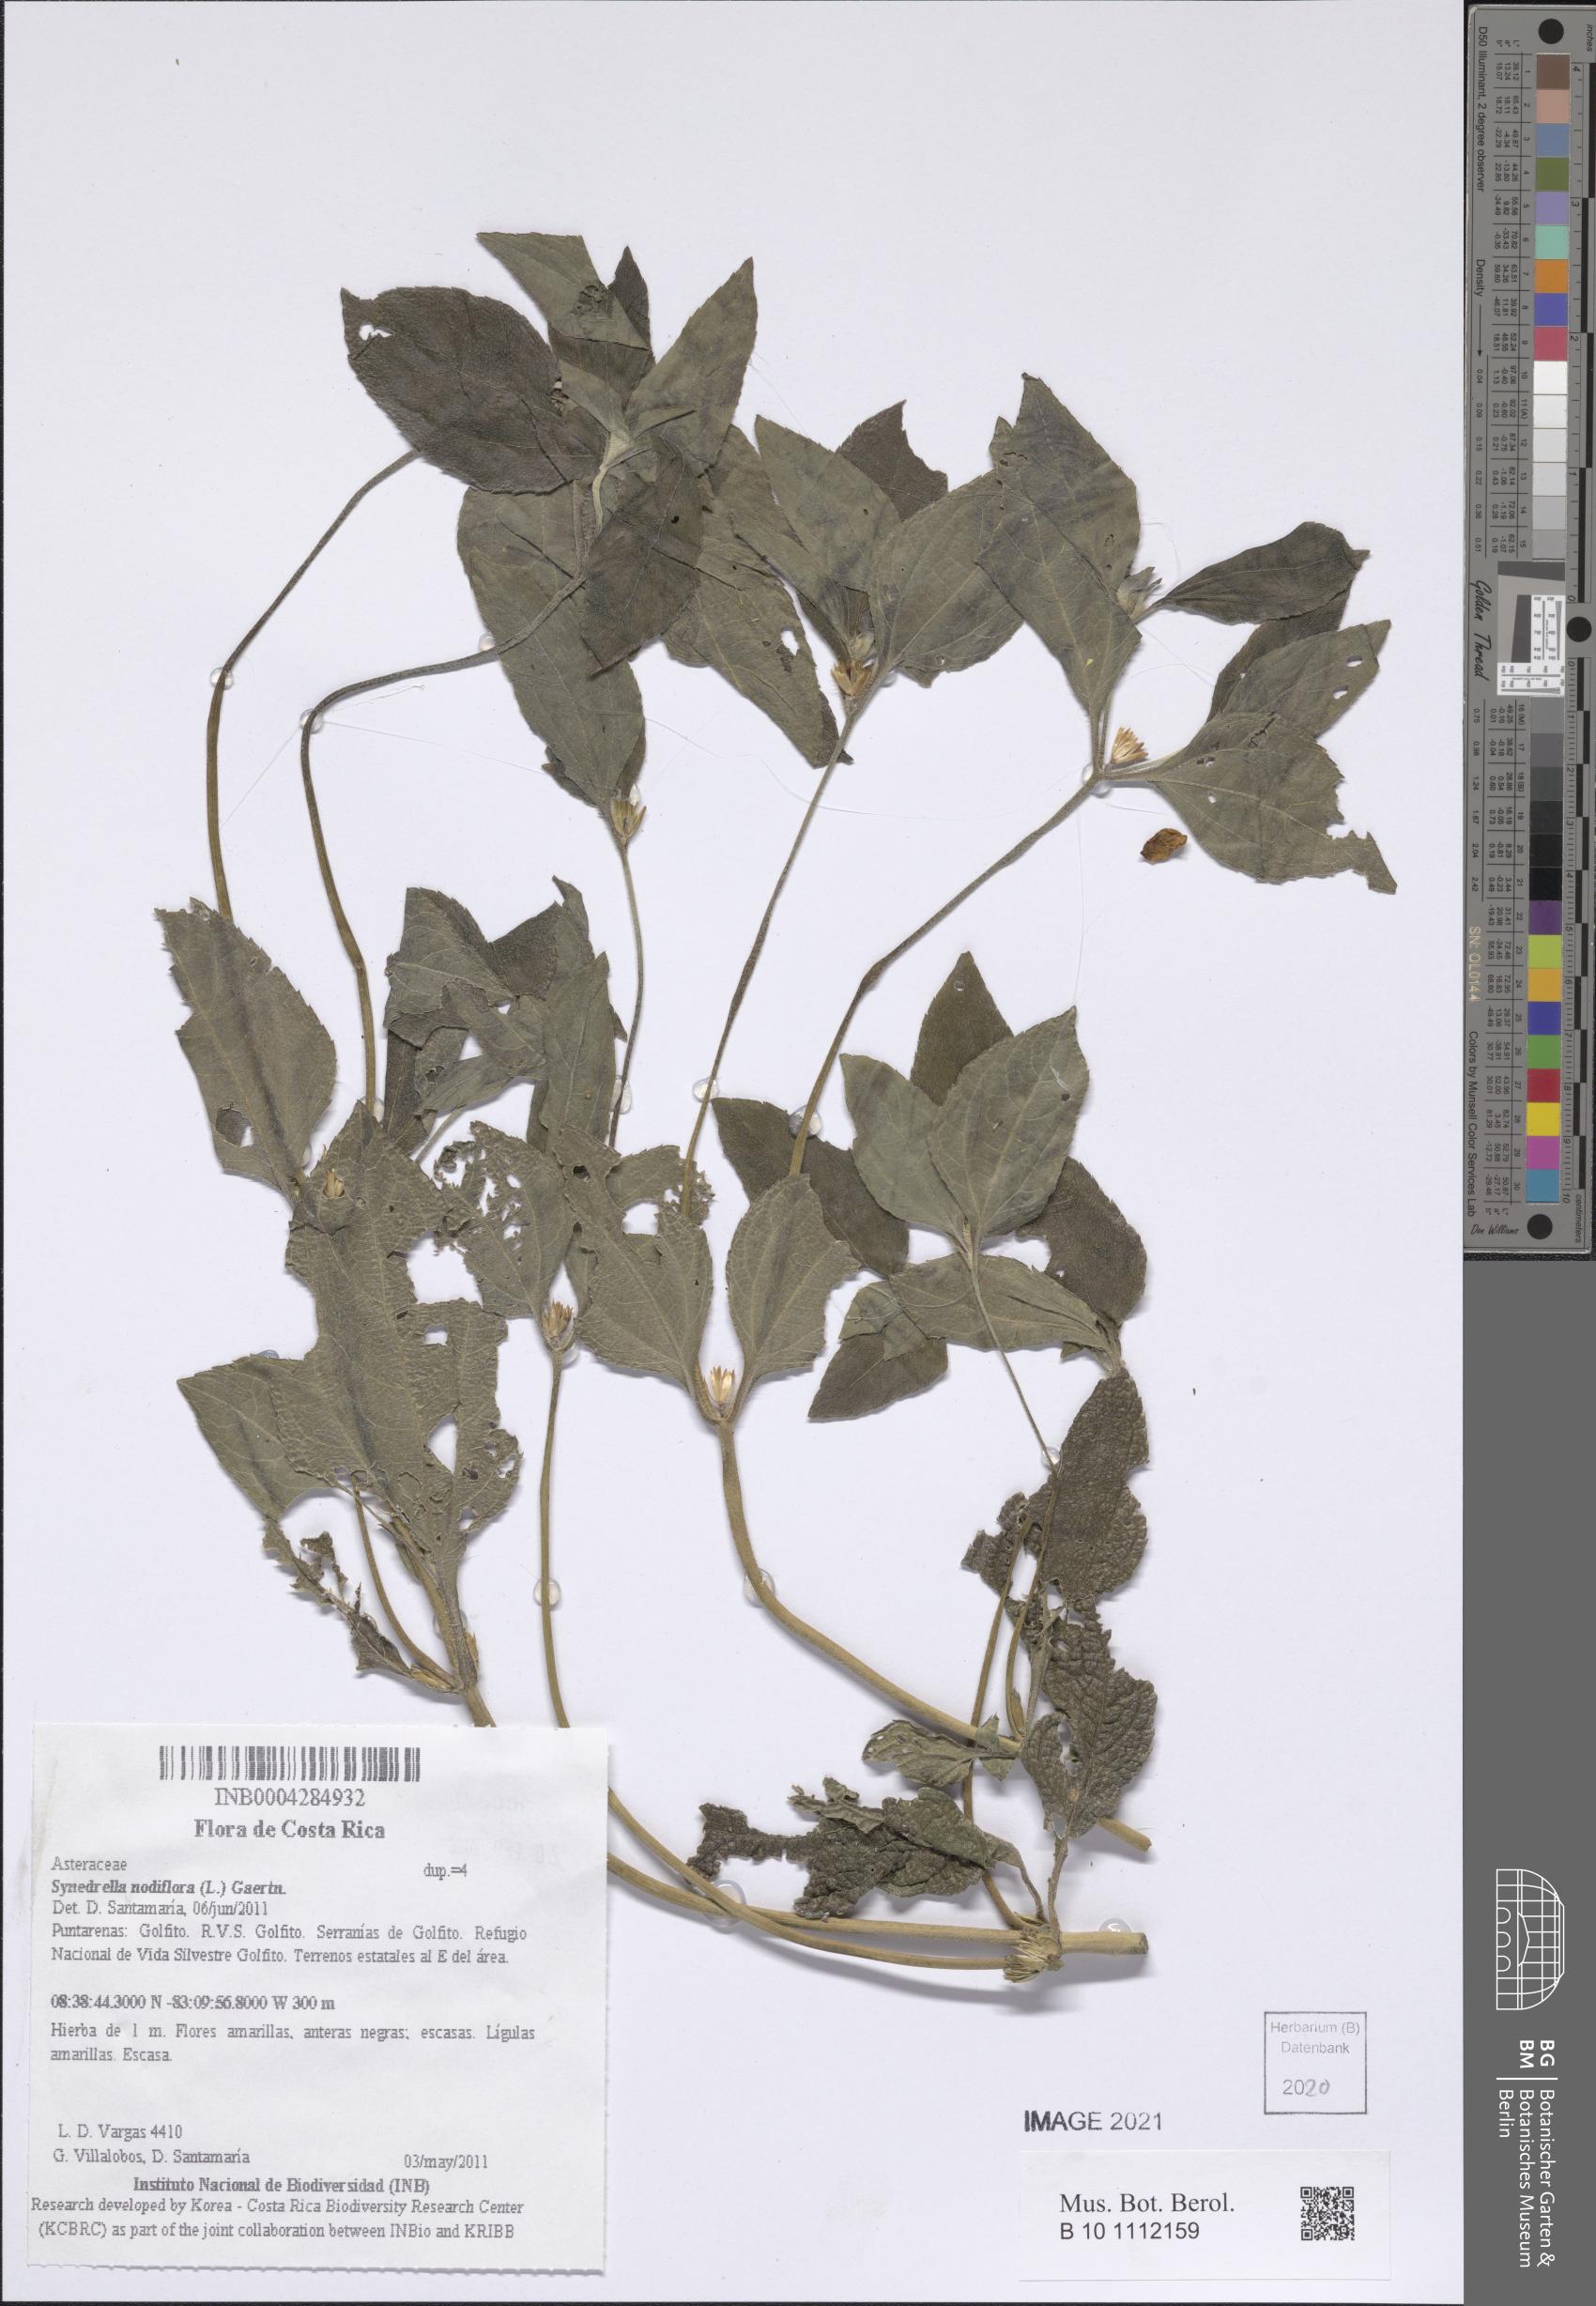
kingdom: Plantae
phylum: Tracheophyta
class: Magnoliopsida
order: Asterales
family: Asteraceae
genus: Synedrella
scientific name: Synedrella nodiflora
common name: Nodeweed
